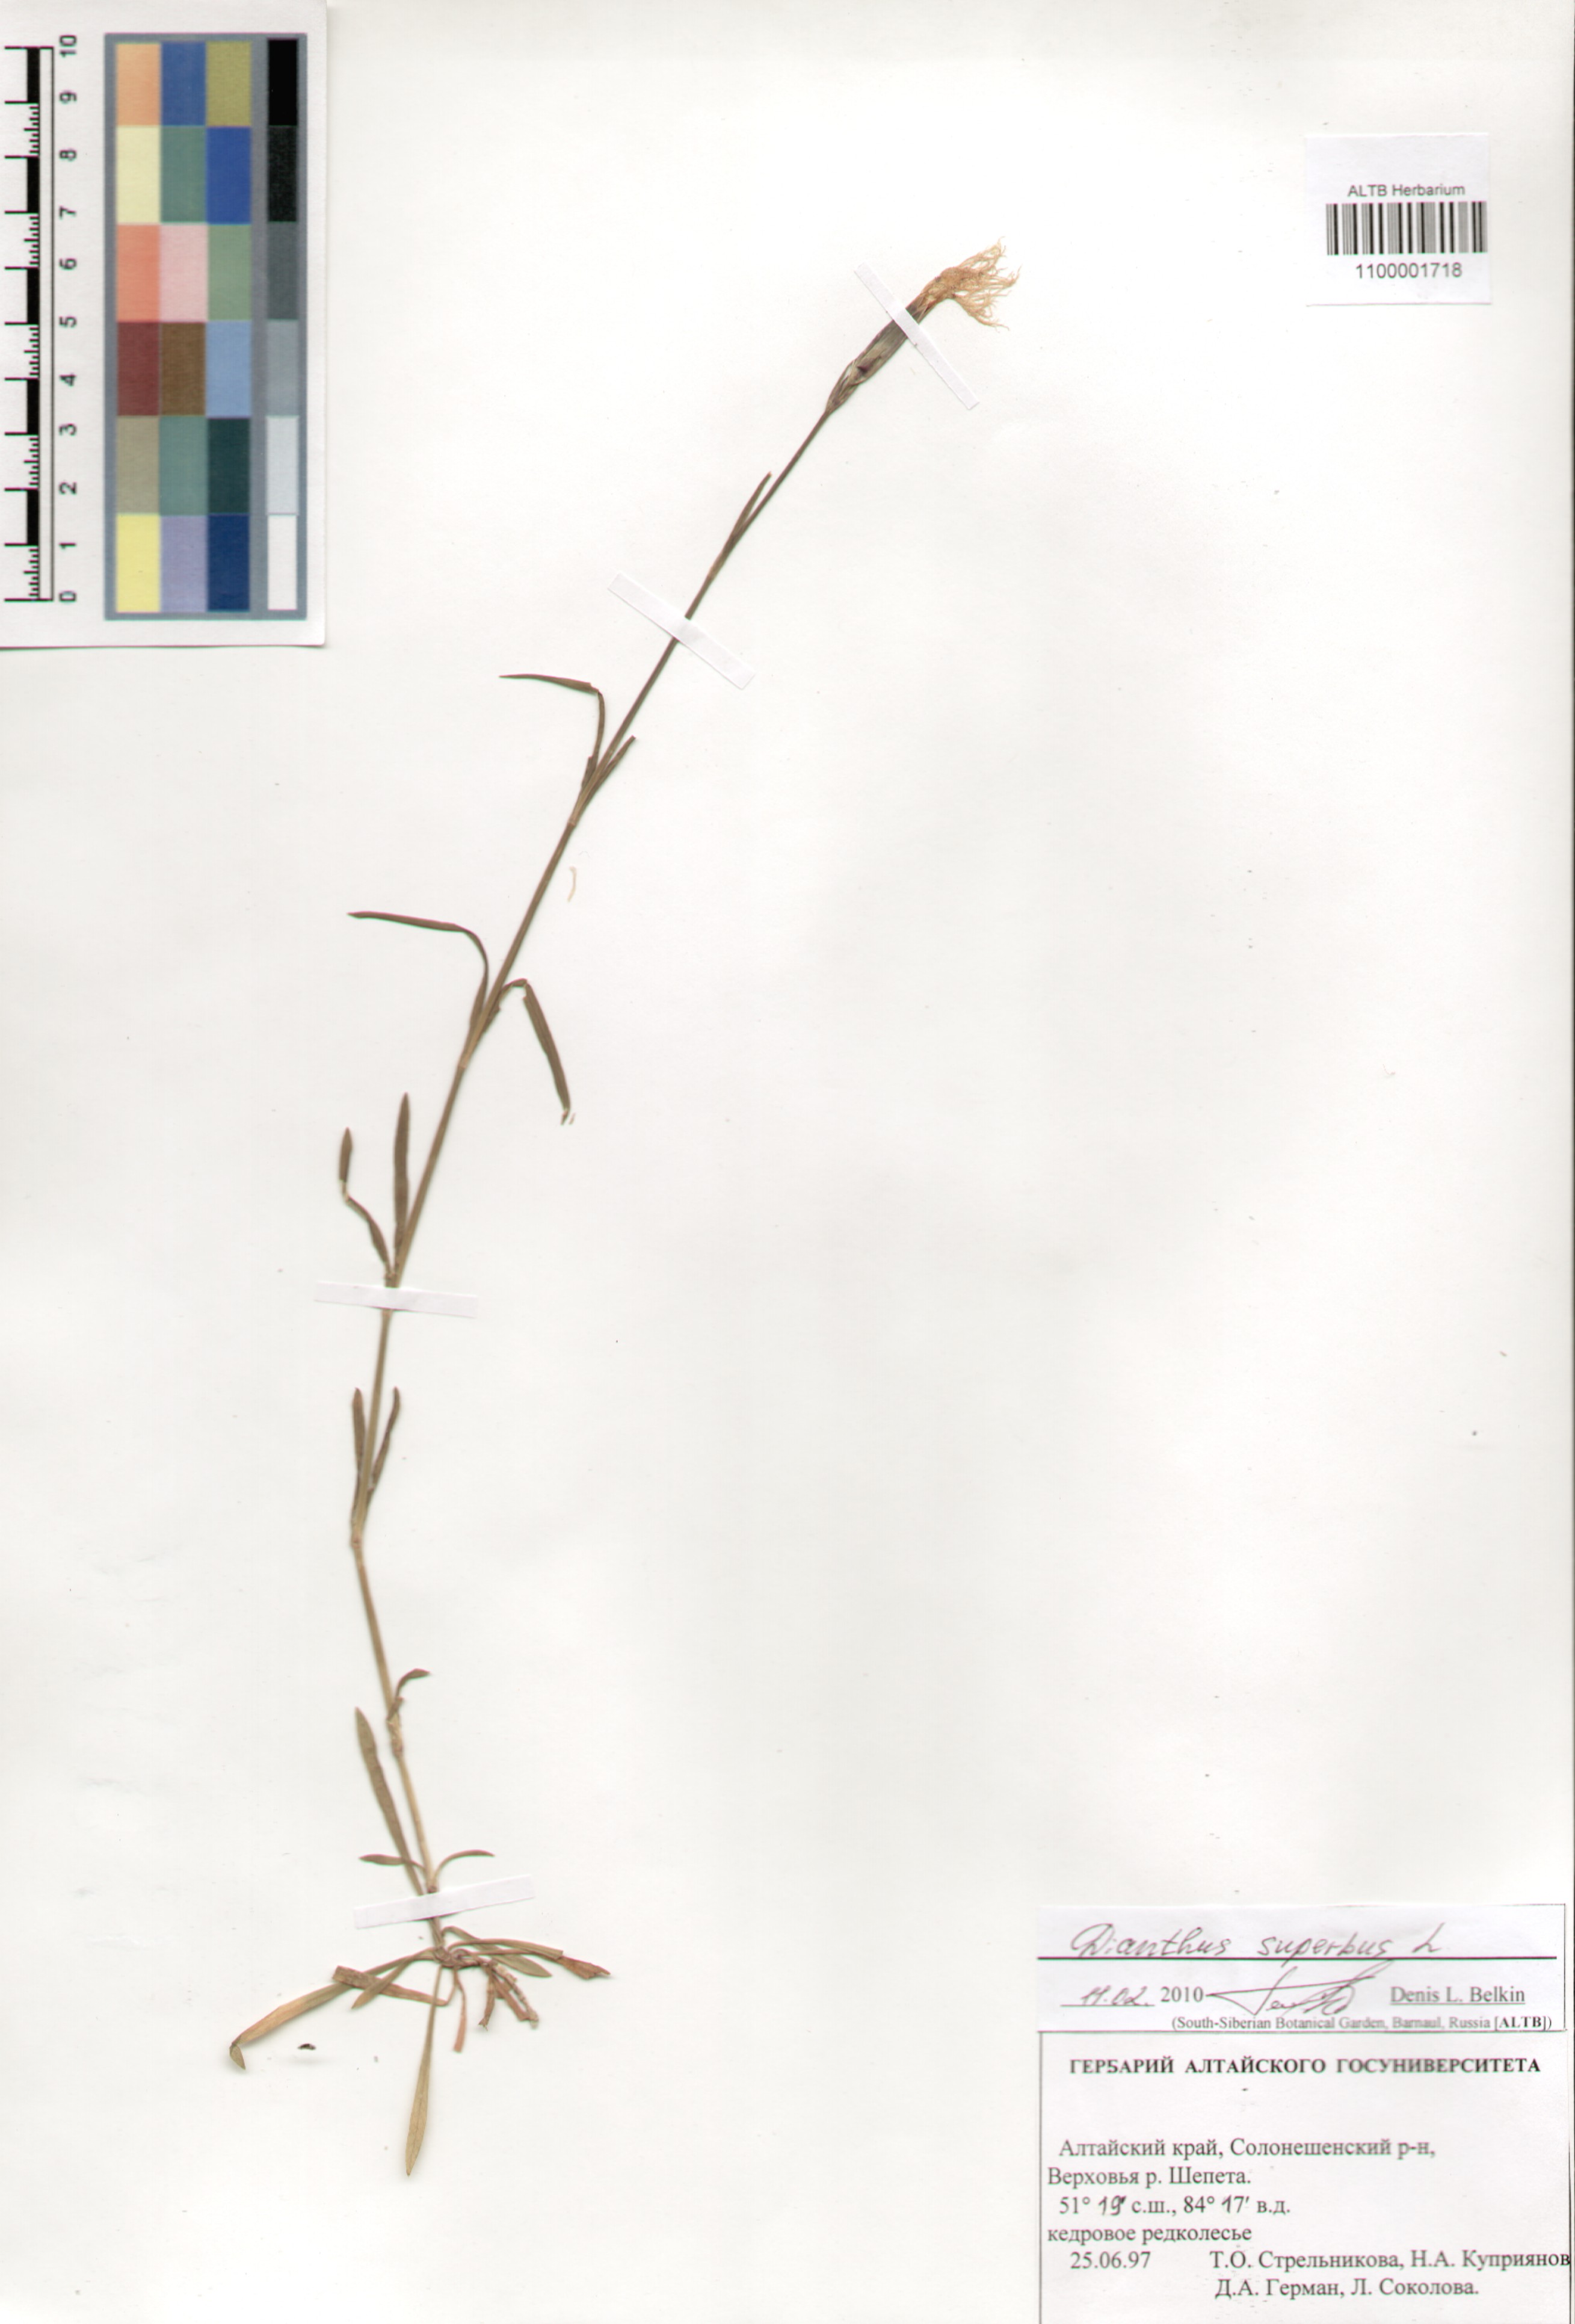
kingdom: Plantae
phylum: Tracheophyta
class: Magnoliopsida
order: Caryophyllales
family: Caryophyllaceae
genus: Dianthus
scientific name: Dianthus superbus
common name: Fringed pink
